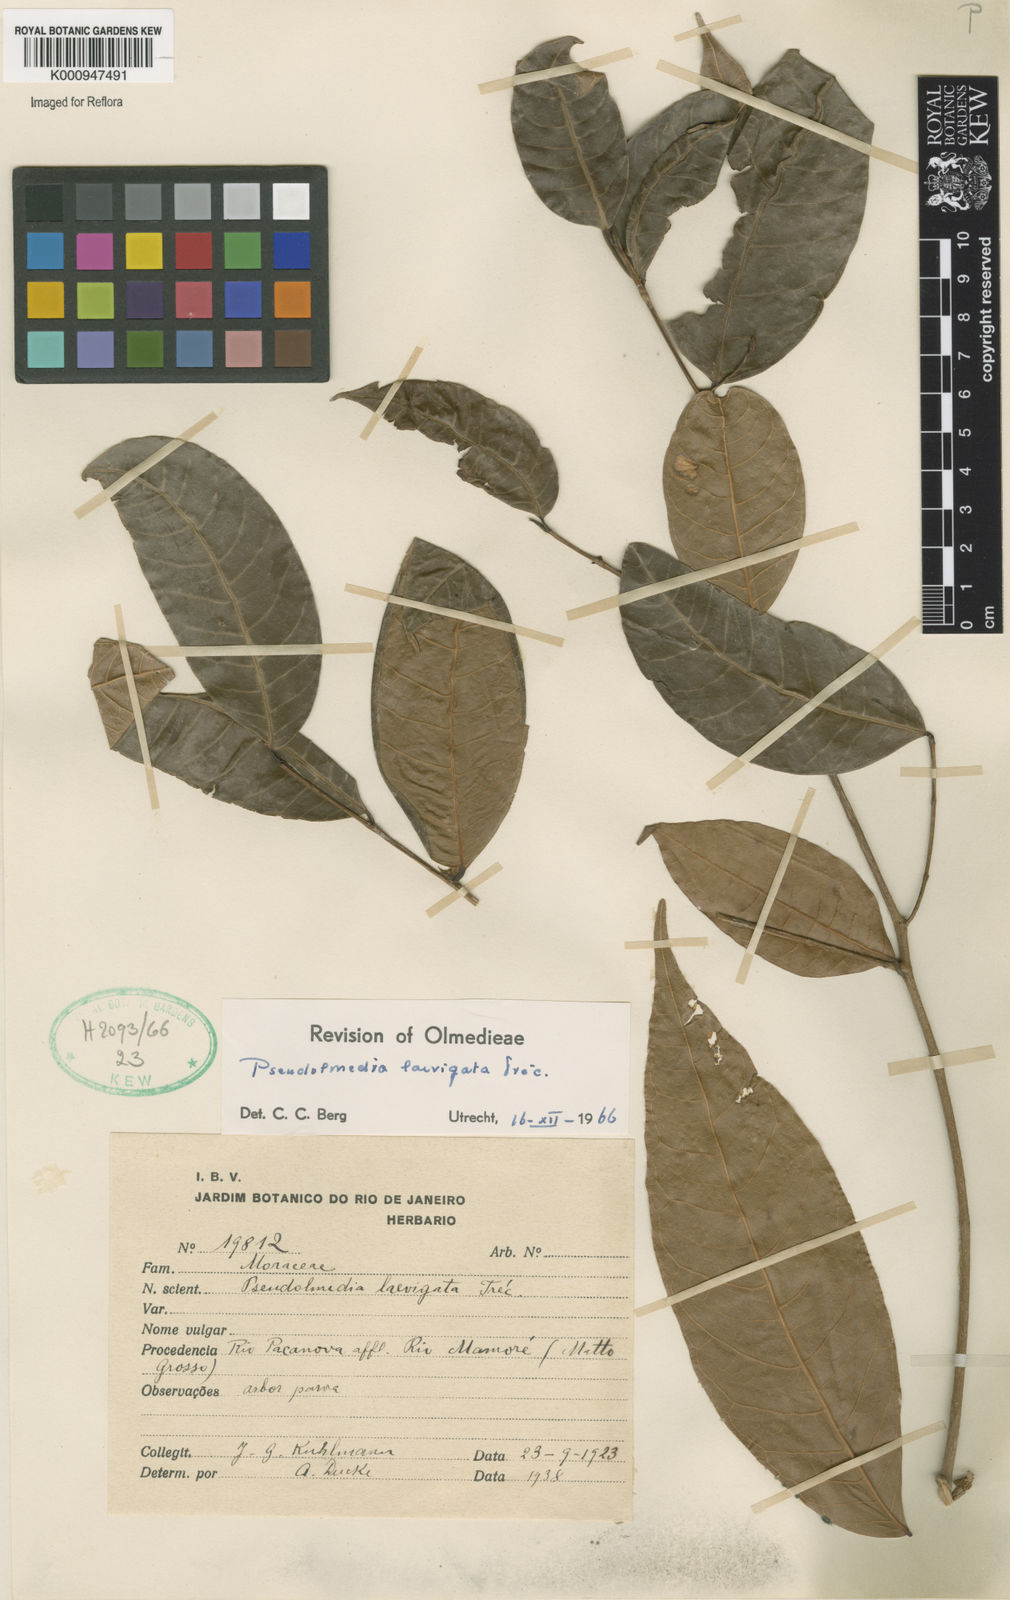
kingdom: Plantae
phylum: Tracheophyta
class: Magnoliopsida
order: Rosales
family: Moraceae
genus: Pseudolmedia
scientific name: Pseudolmedia
